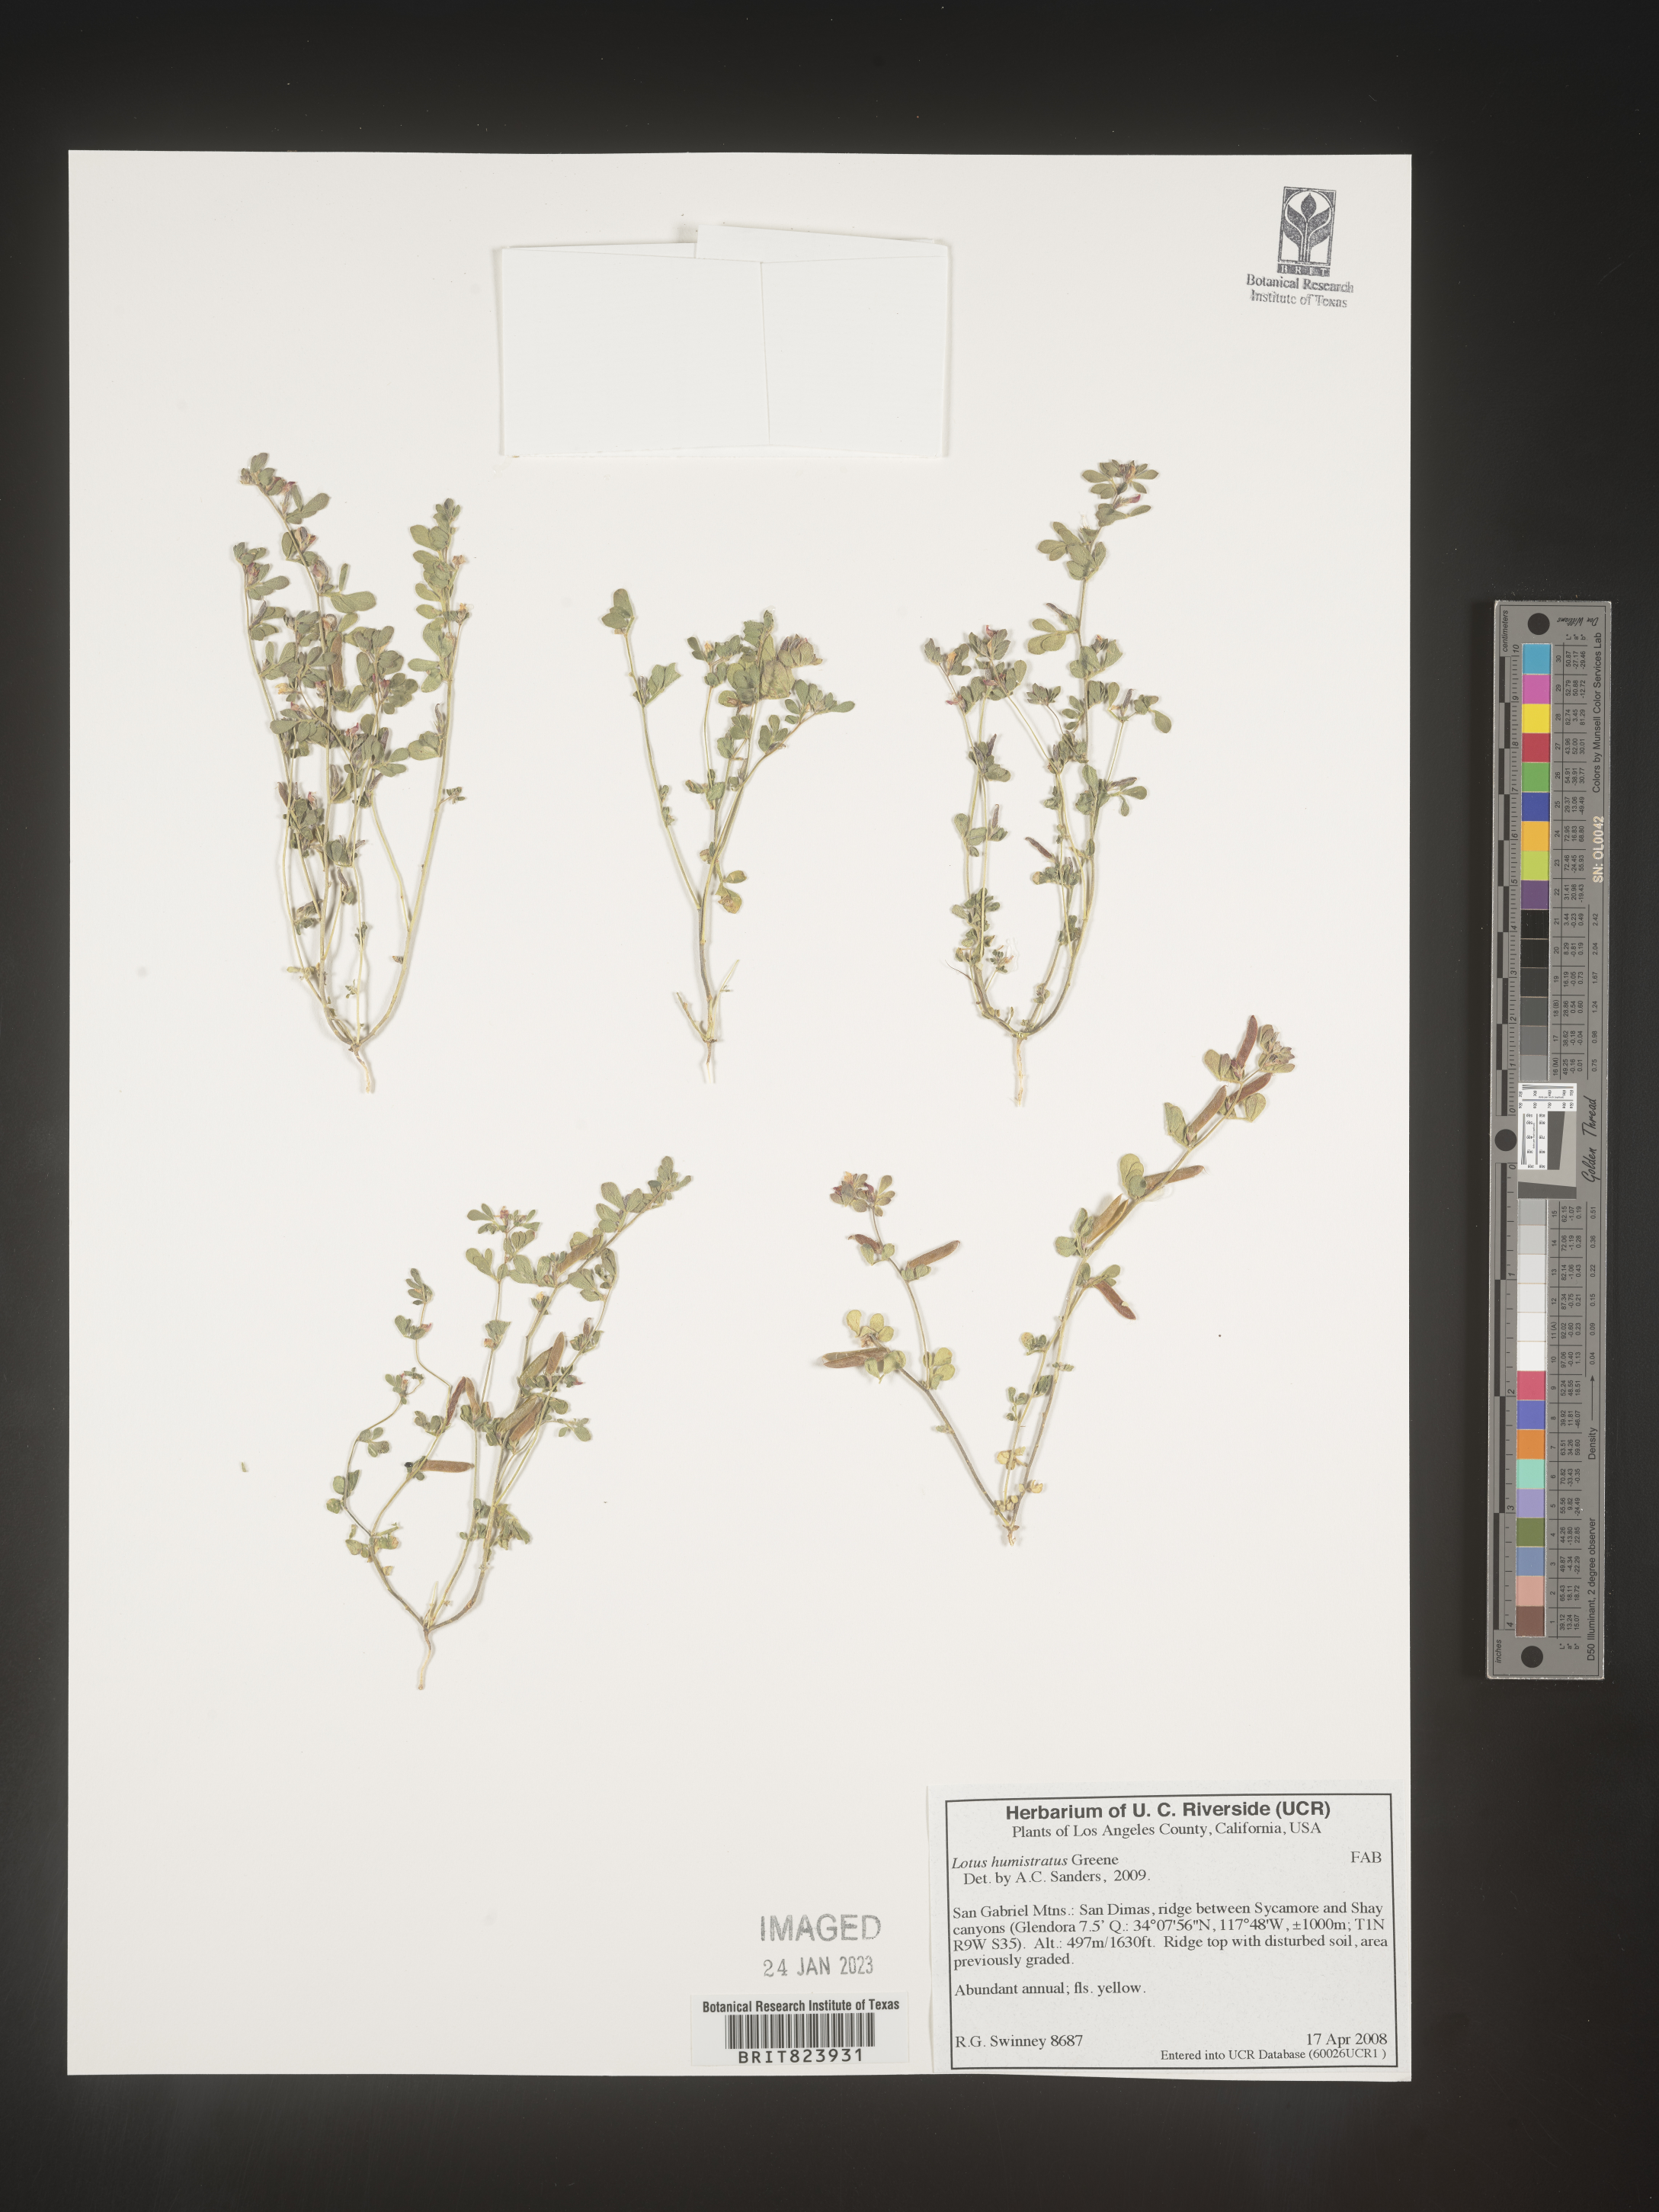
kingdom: Plantae
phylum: Tracheophyta
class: Magnoliopsida
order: Fabales
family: Fabaceae
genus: Acmispon
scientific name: Acmispon brachycarpus
